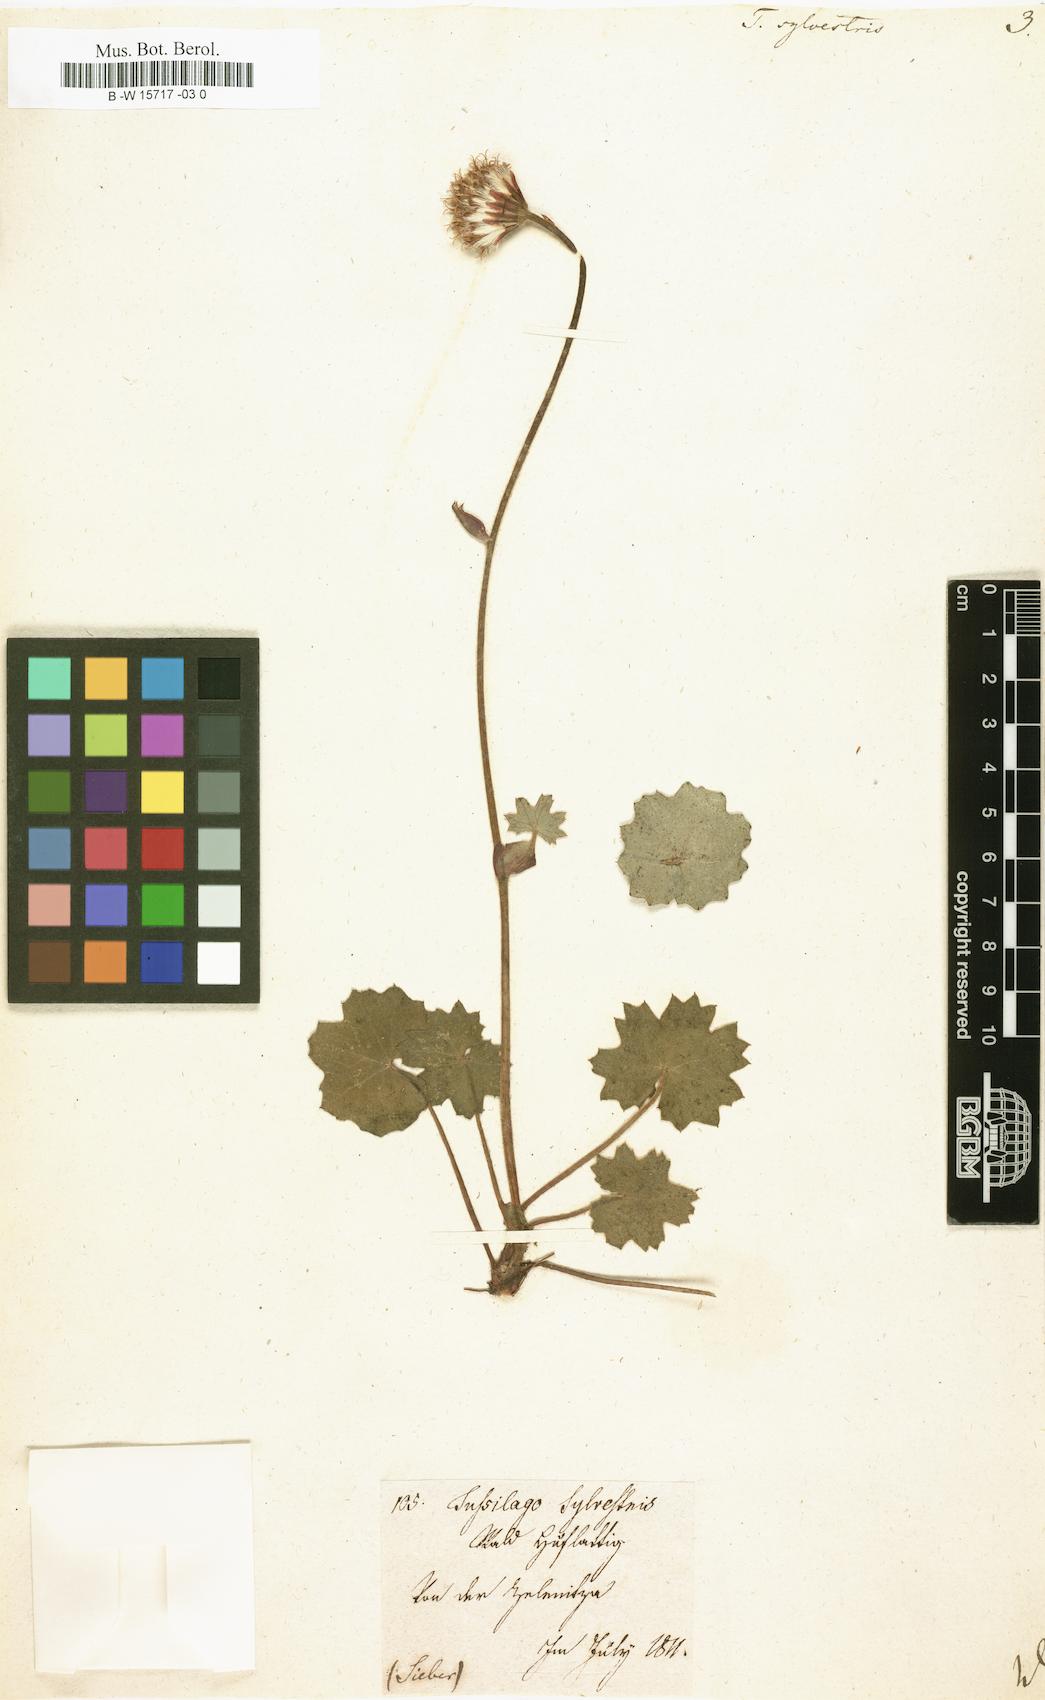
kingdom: Plantae
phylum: Tracheophyta
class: Magnoliopsida
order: Asterales
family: Asteraceae
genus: Homogyne
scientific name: Homogyne sylvestris
